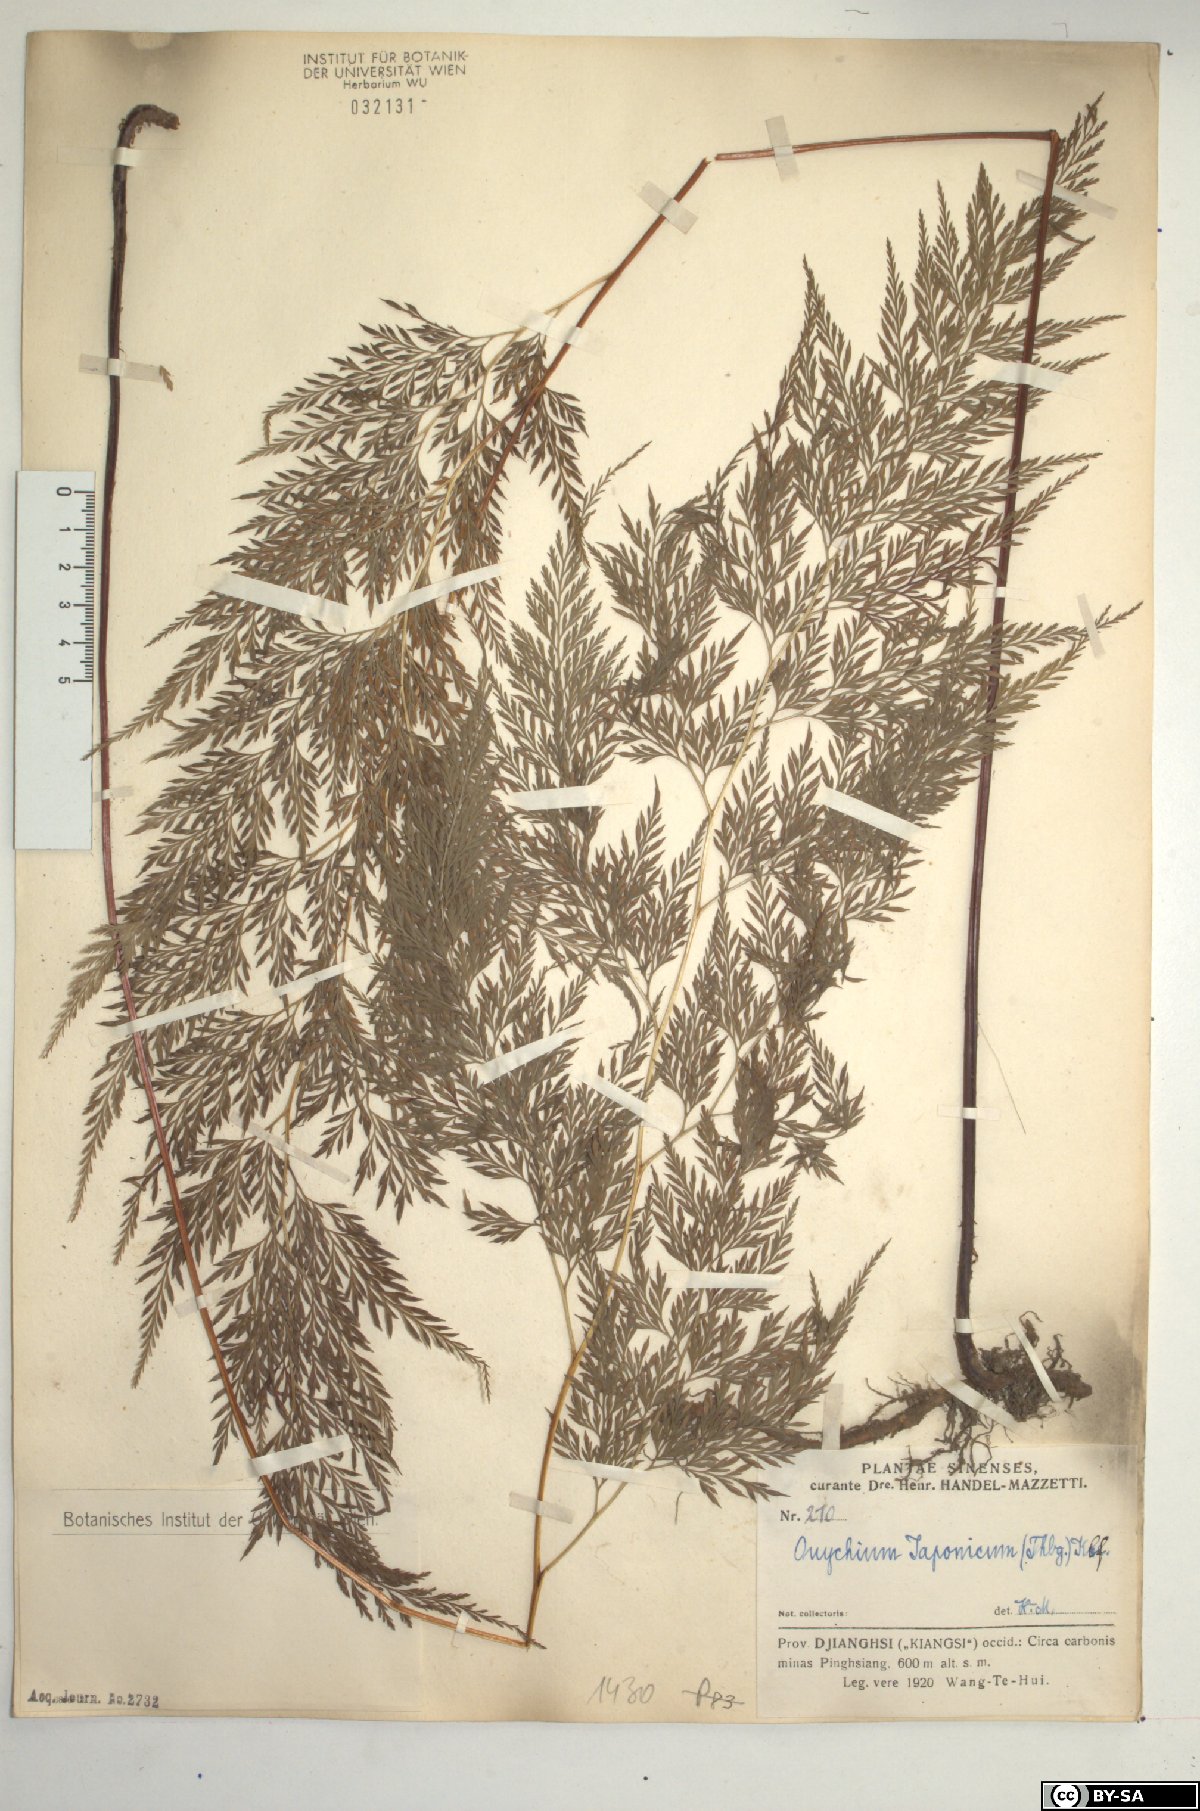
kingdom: Plantae
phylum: Tracheophyta
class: Polypodiopsida
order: Polypodiales
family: Pteridaceae
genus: Onychium
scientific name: Onychium japonicum
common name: Carrot fern
